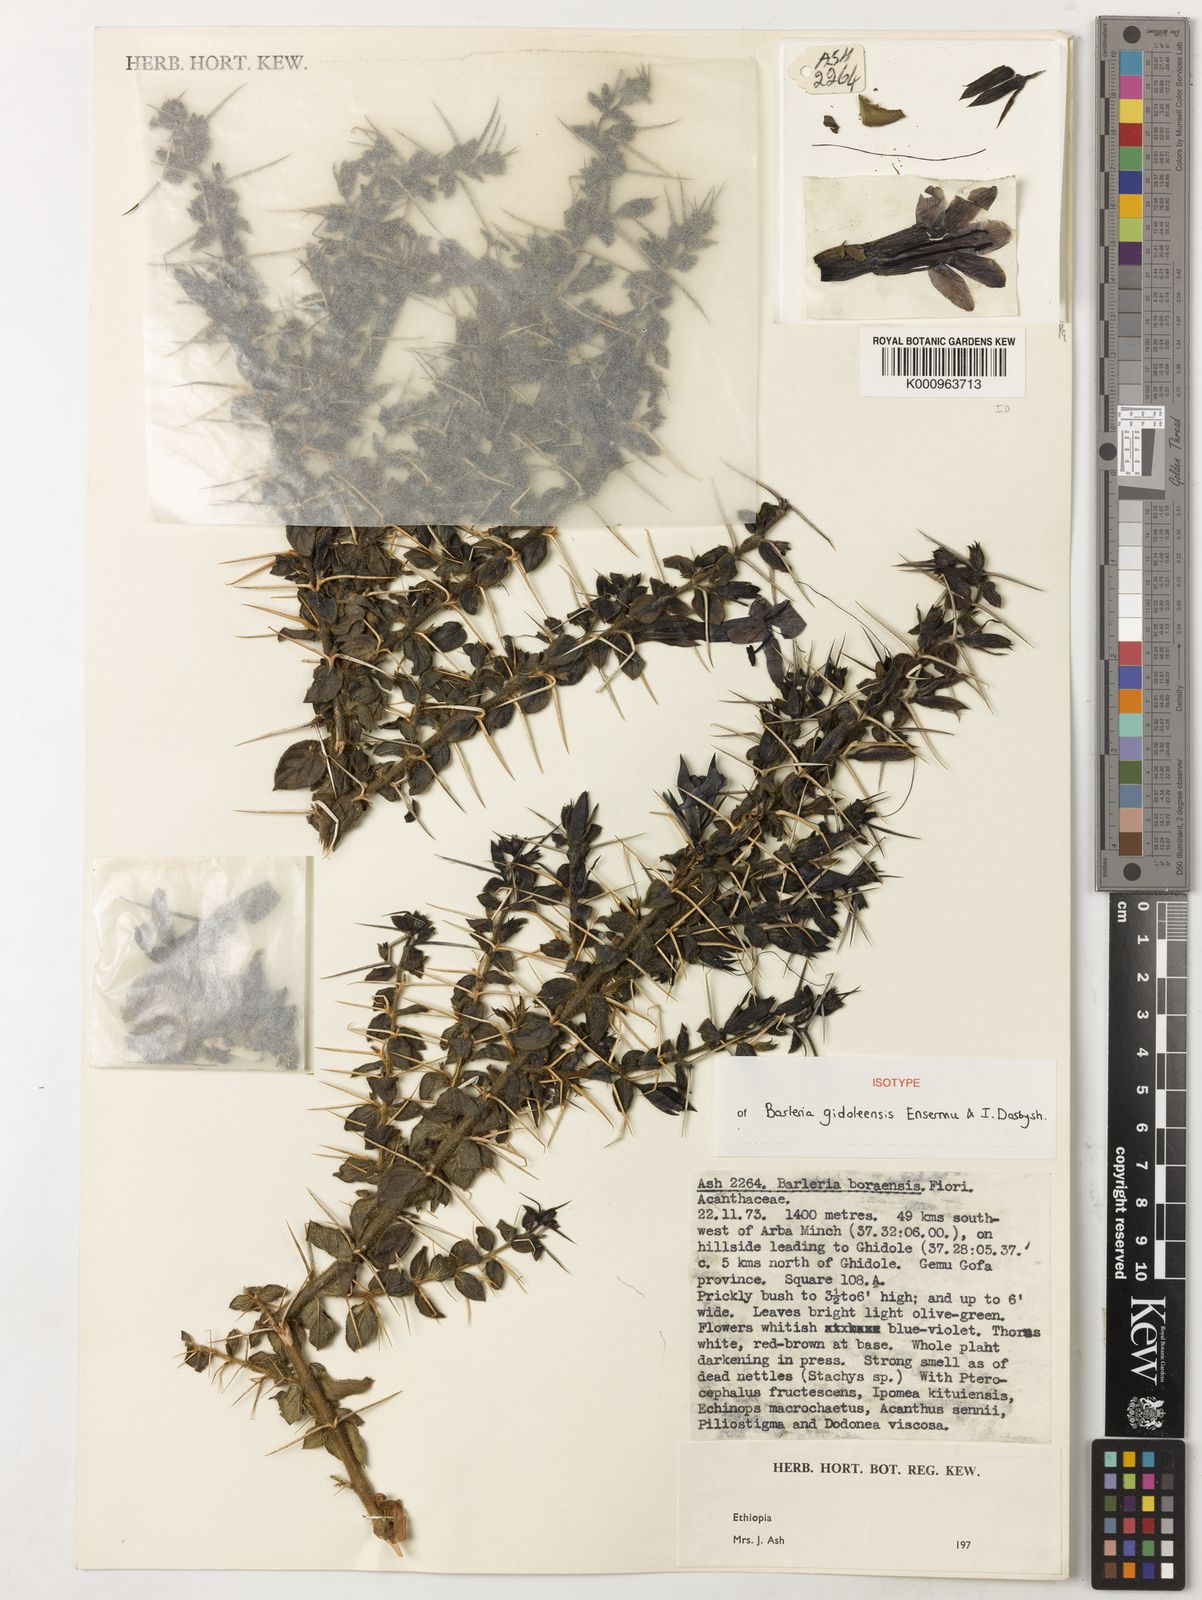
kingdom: Plantae
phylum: Tracheophyta
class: Magnoliopsida
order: Lamiales
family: Acanthaceae
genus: Barleria
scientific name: Barleria gidoleensis
